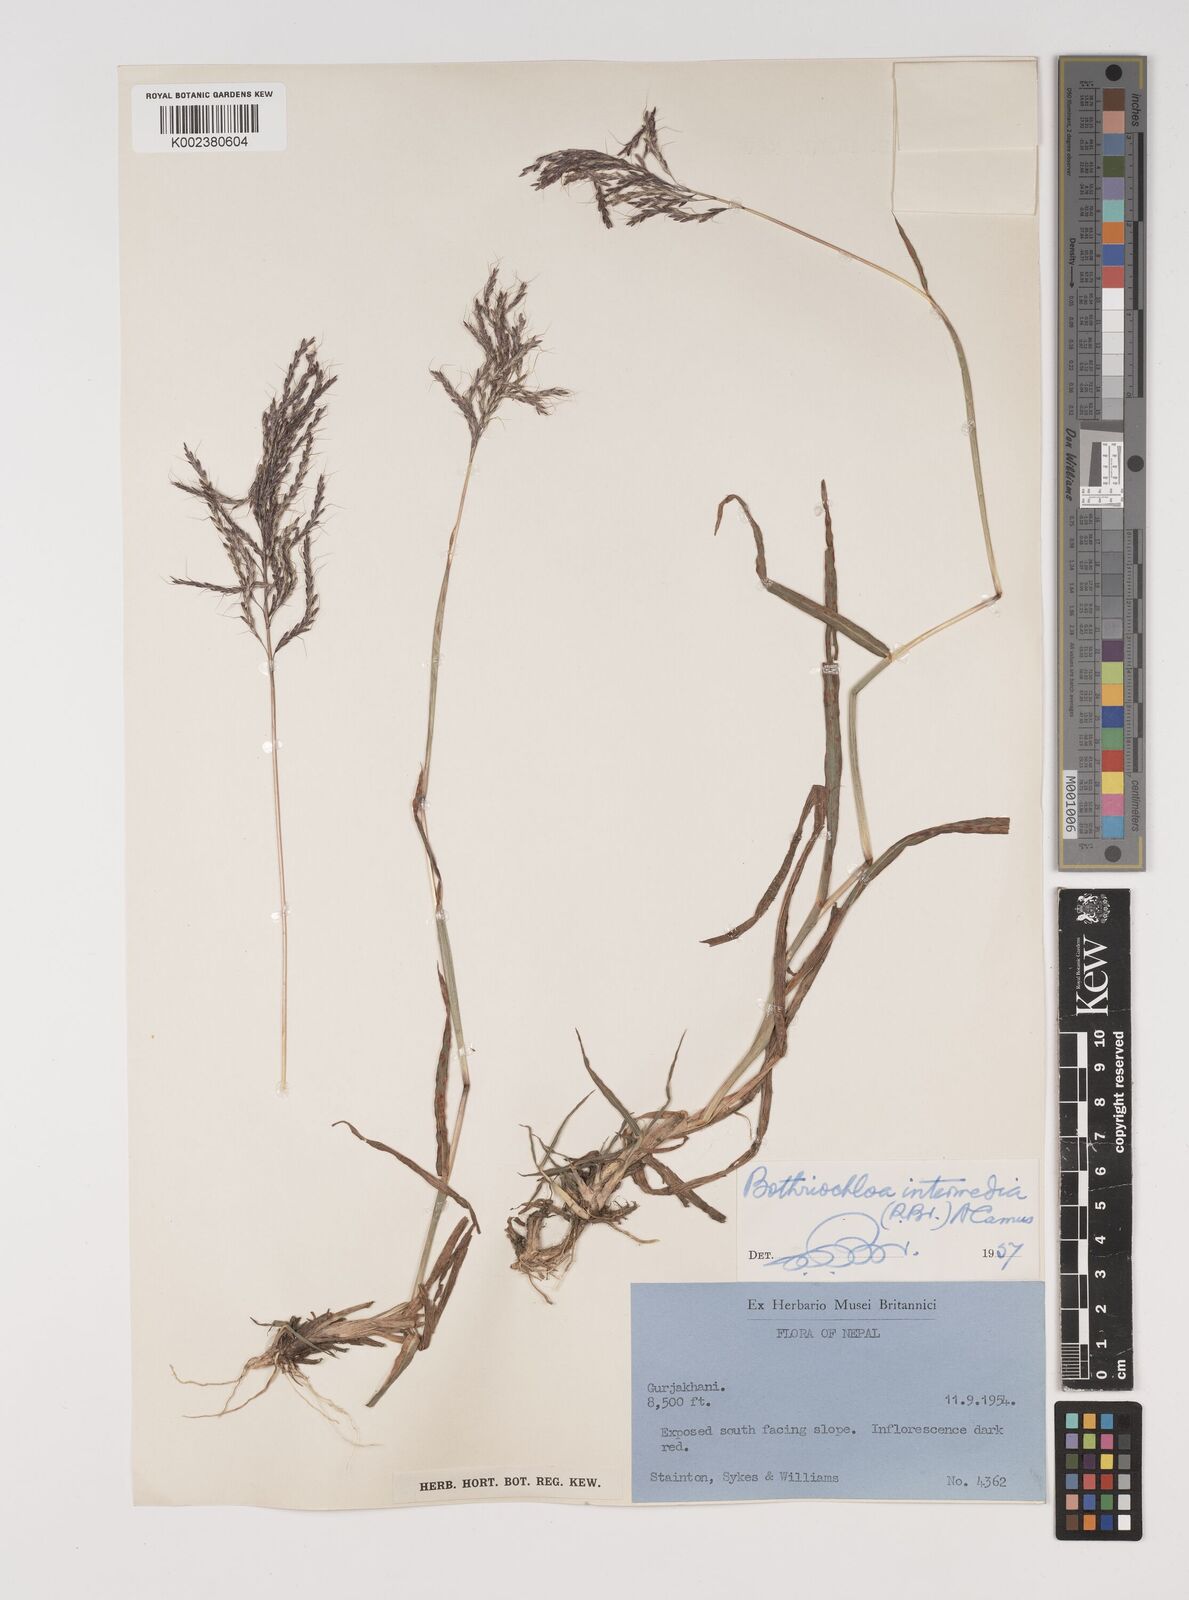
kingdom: Plantae
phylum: Tracheophyta
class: Liliopsida
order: Poales
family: Poaceae
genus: Bothriochloa
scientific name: Bothriochloa bladhii
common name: Caucasian bluestem
